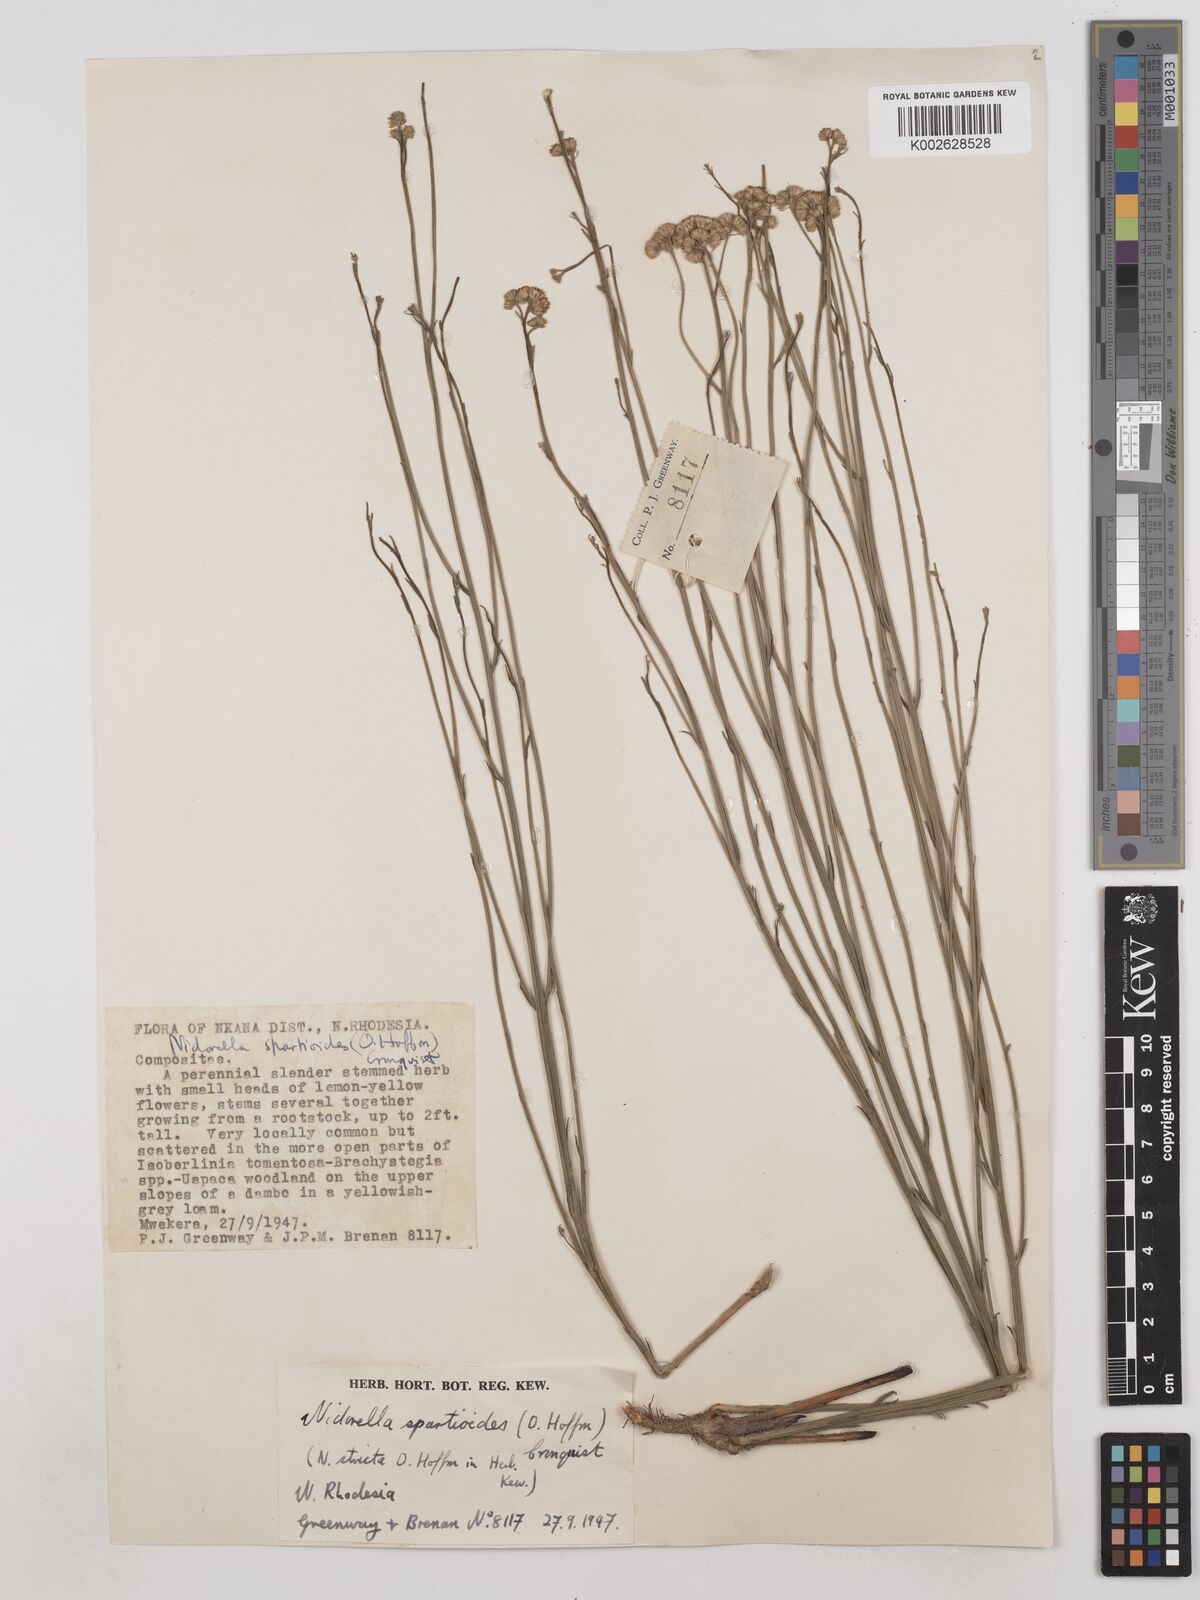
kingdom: Plantae
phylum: Tracheophyta
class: Magnoliopsida
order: Asterales
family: Asteraceae
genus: Nidorella
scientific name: Nidorella spartioides
